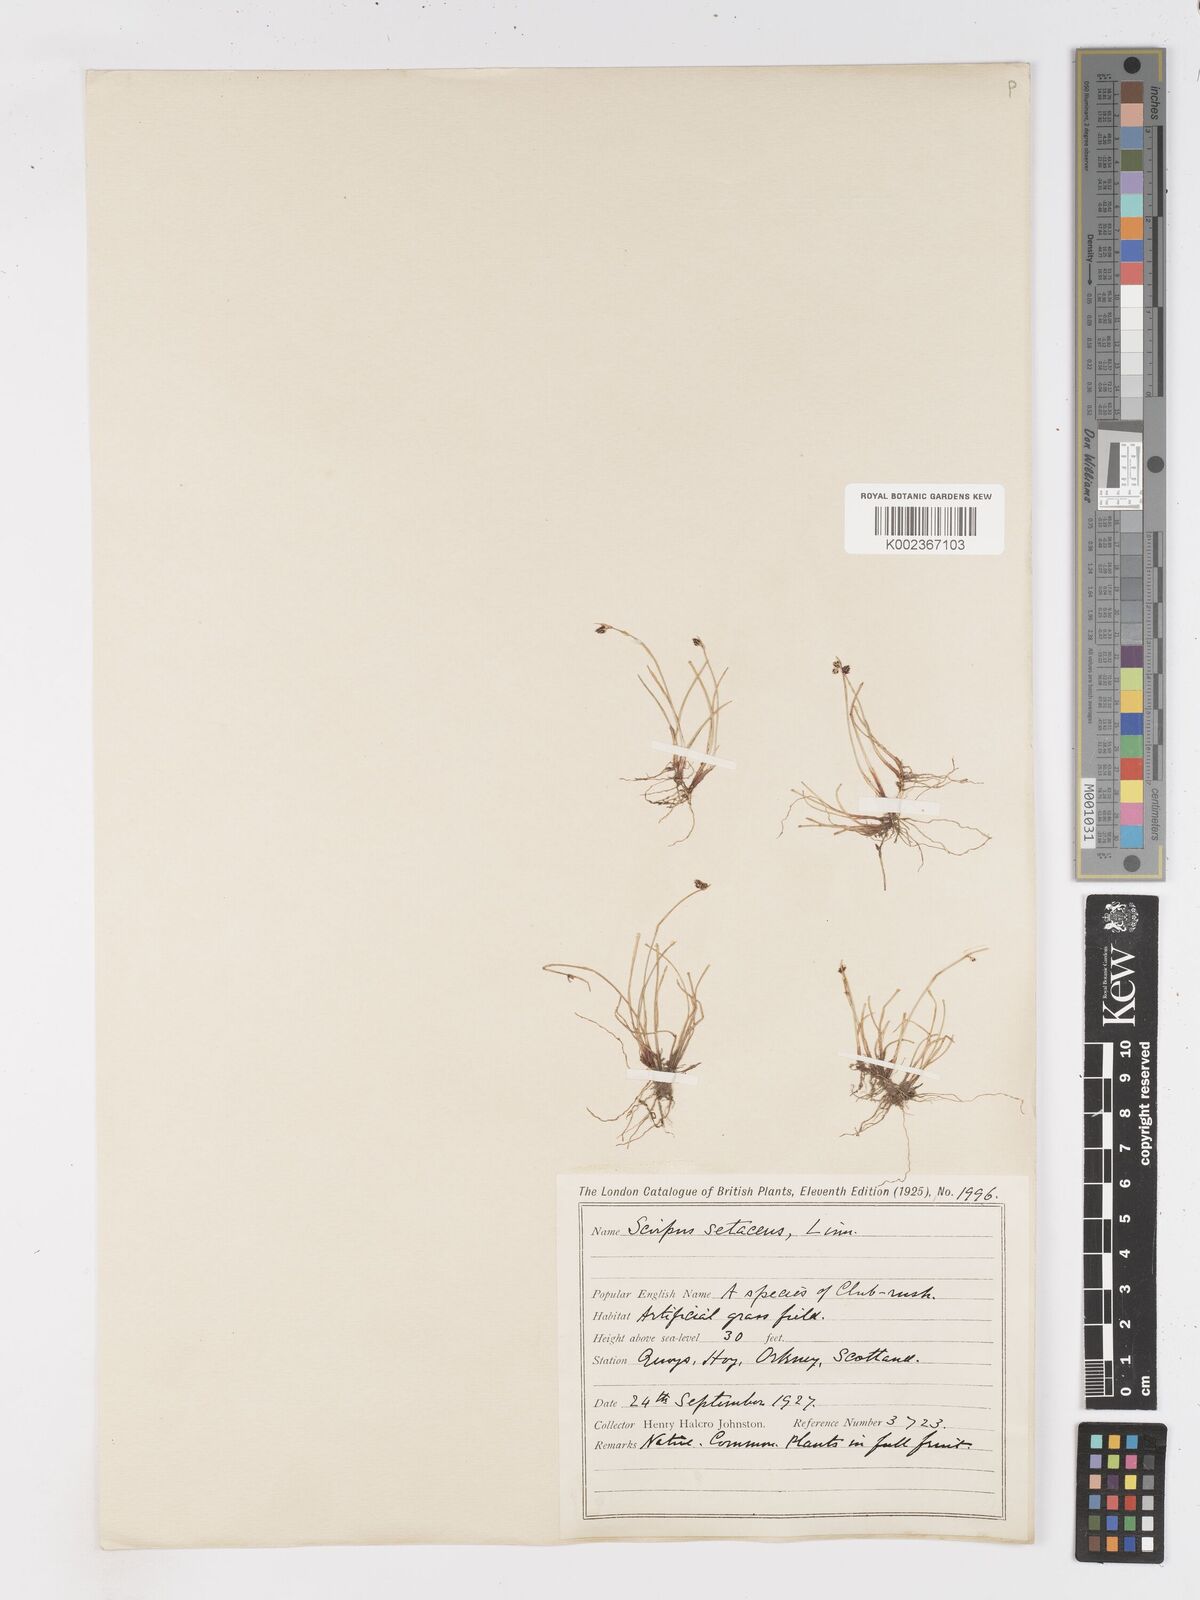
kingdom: Plantae
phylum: Tracheophyta
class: Liliopsida
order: Poales
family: Cyperaceae
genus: Isolepis
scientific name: Isolepis setacea
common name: Bristle club-rush
